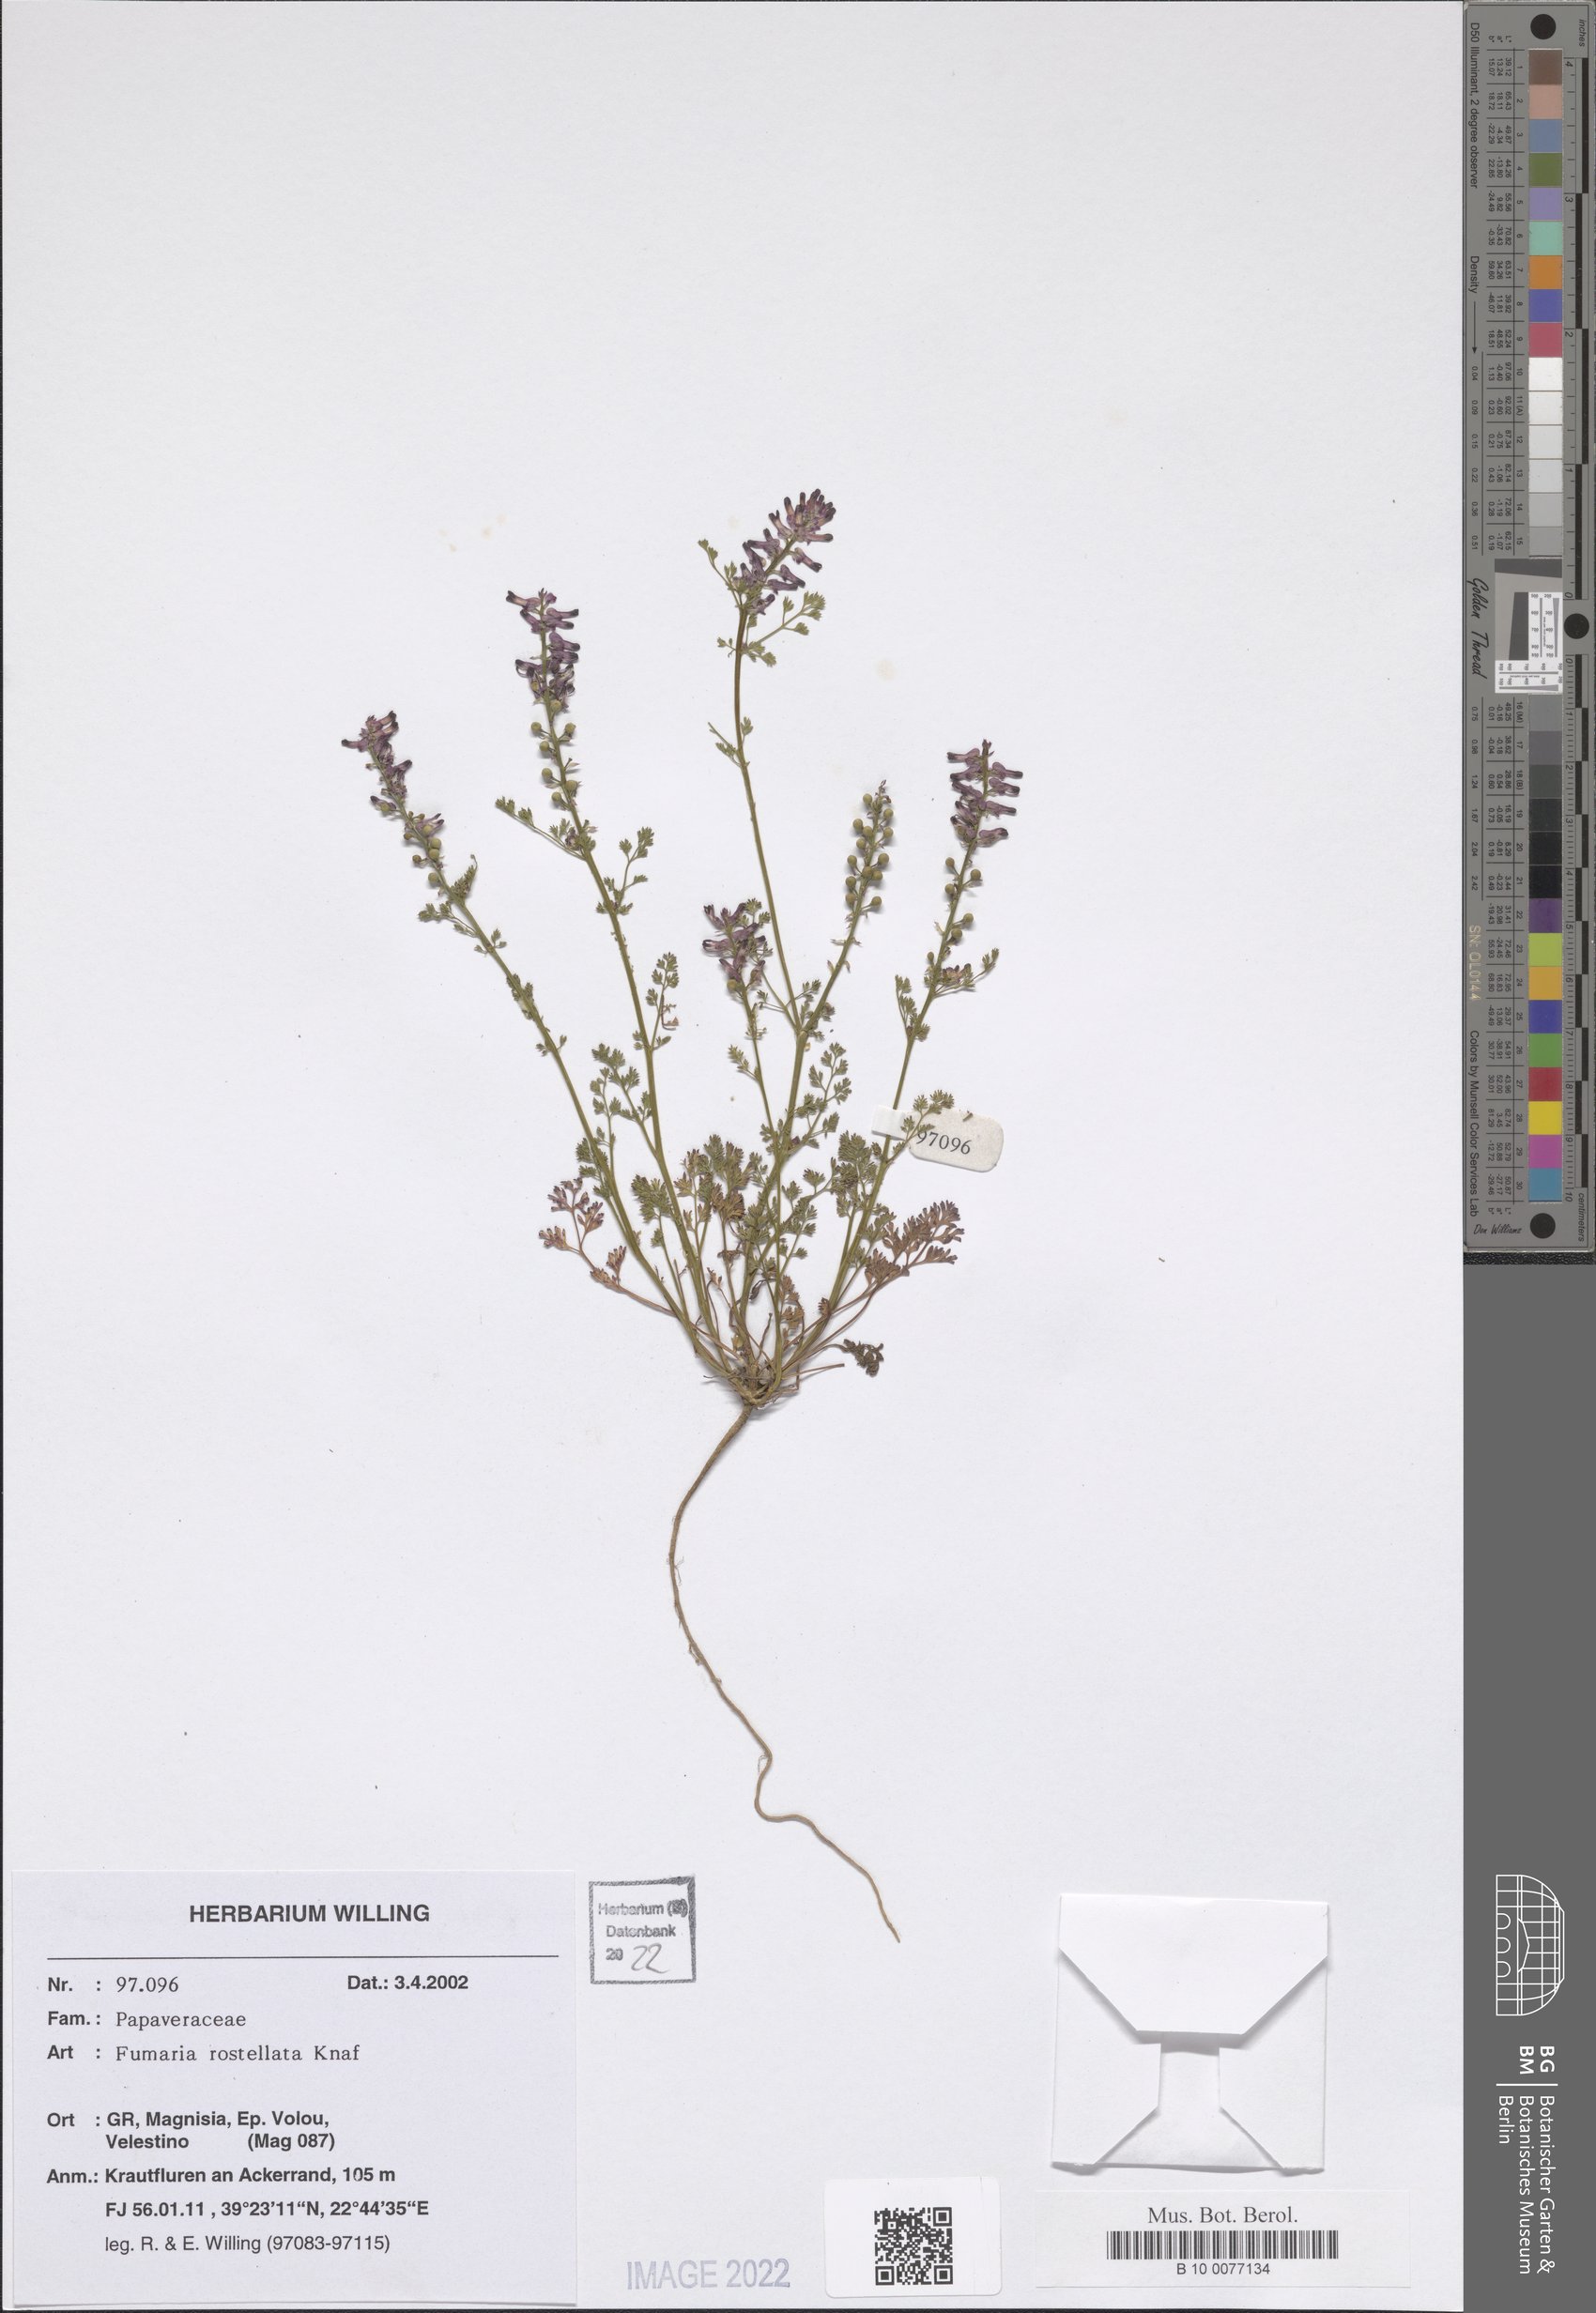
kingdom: Plantae
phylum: Tracheophyta
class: Magnoliopsida
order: Ranunculales
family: Papaveraceae
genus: Fumaria
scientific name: Fumaria rostellata
